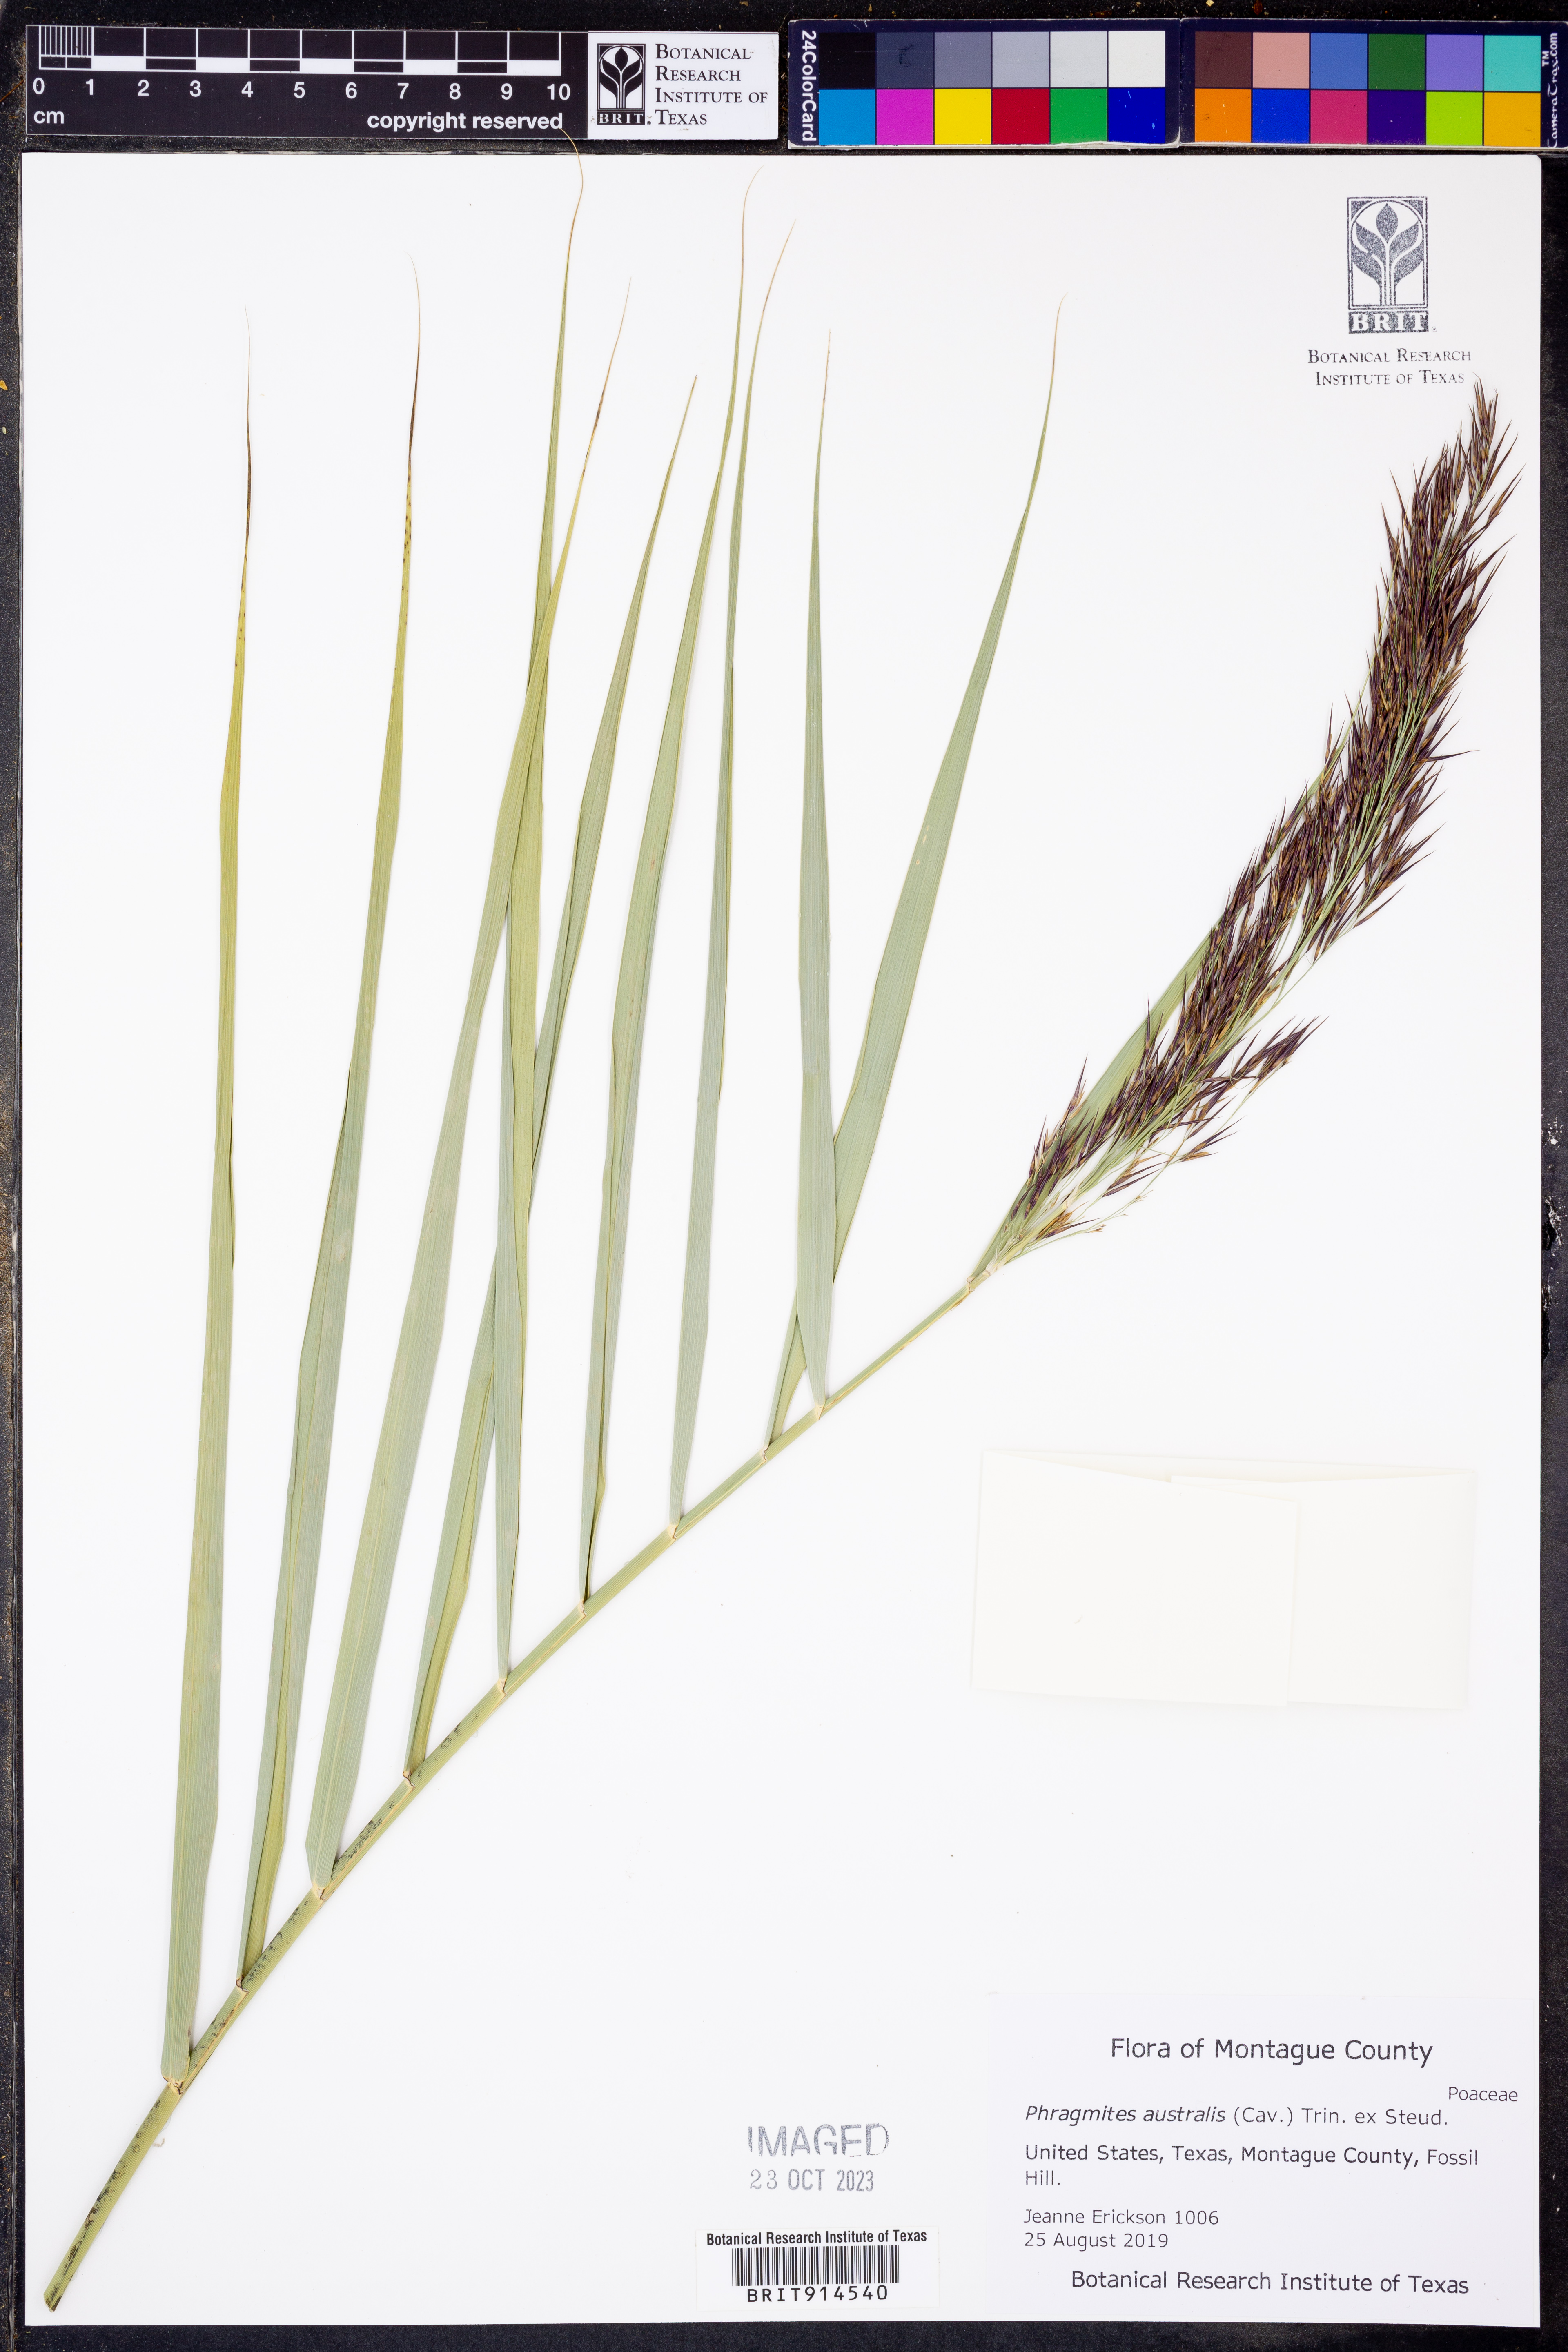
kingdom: Plantae
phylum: Tracheophyta
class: Liliopsida
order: Poales
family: Poaceae
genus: Phragmites
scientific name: Phragmites australis
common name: Common reed
